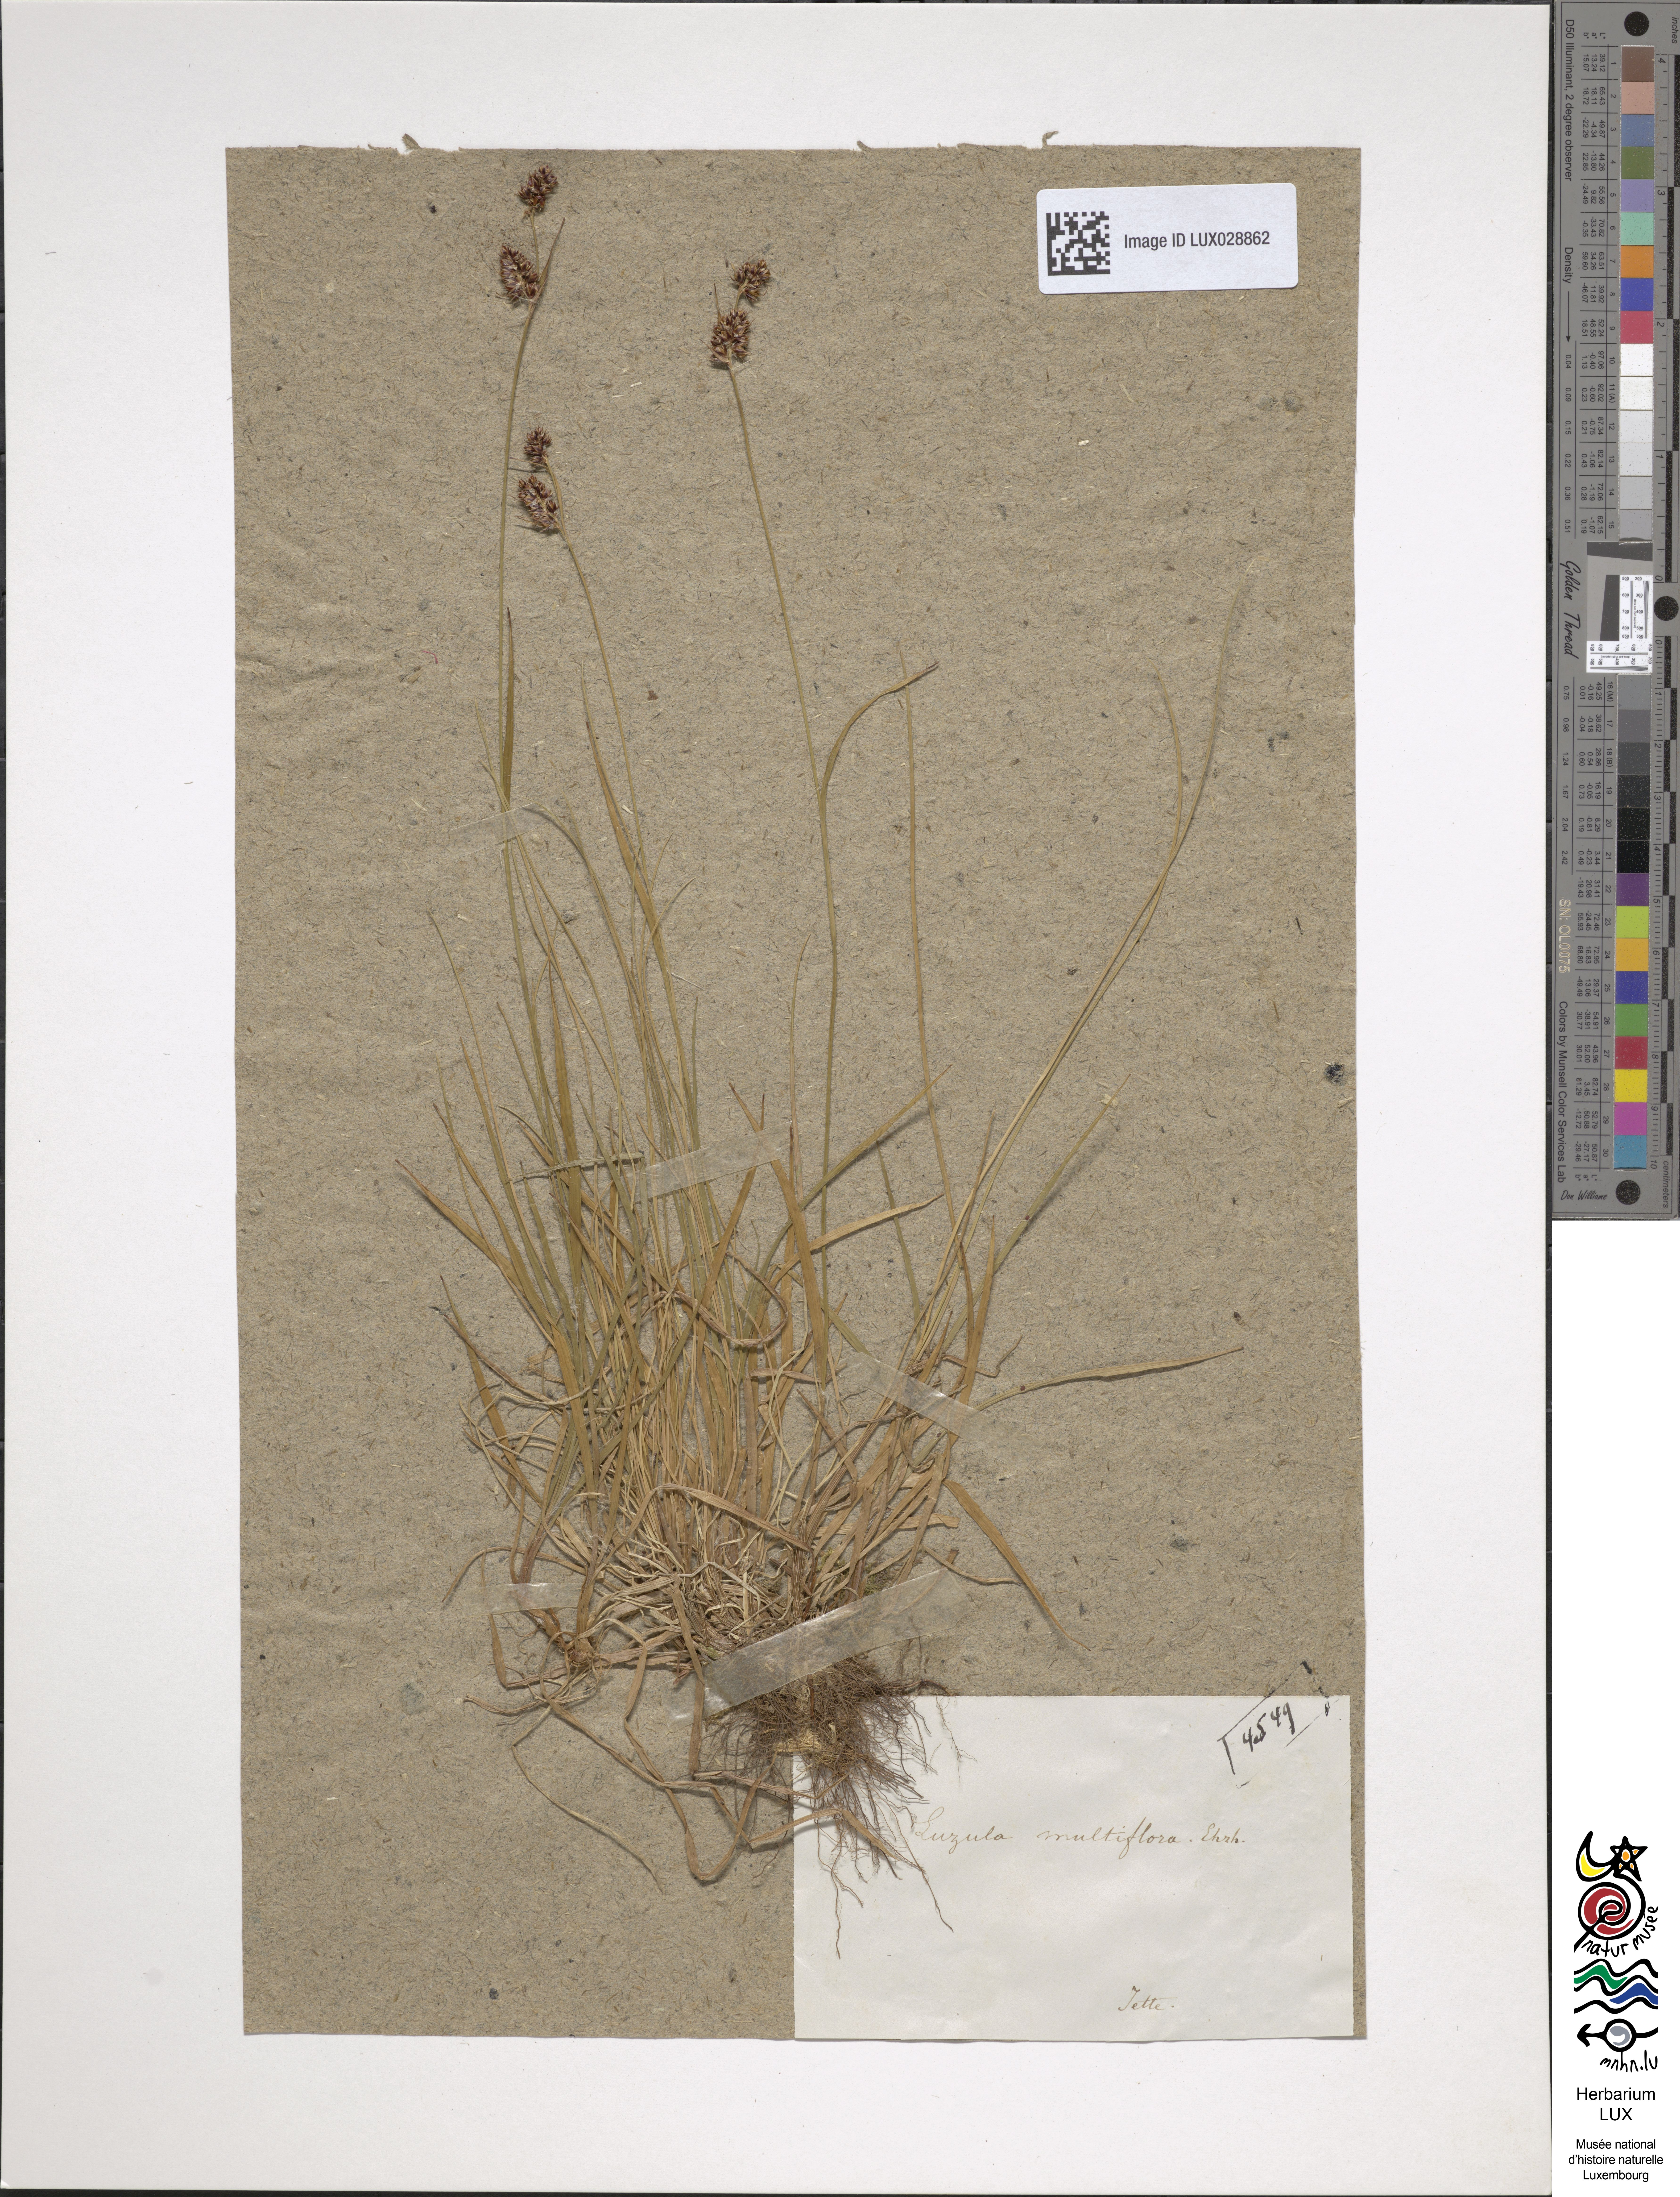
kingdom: Plantae
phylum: Tracheophyta
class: Liliopsida
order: Poales
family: Juncaceae
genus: Luzula
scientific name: Luzula multiflora
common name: Heath wood-rush
